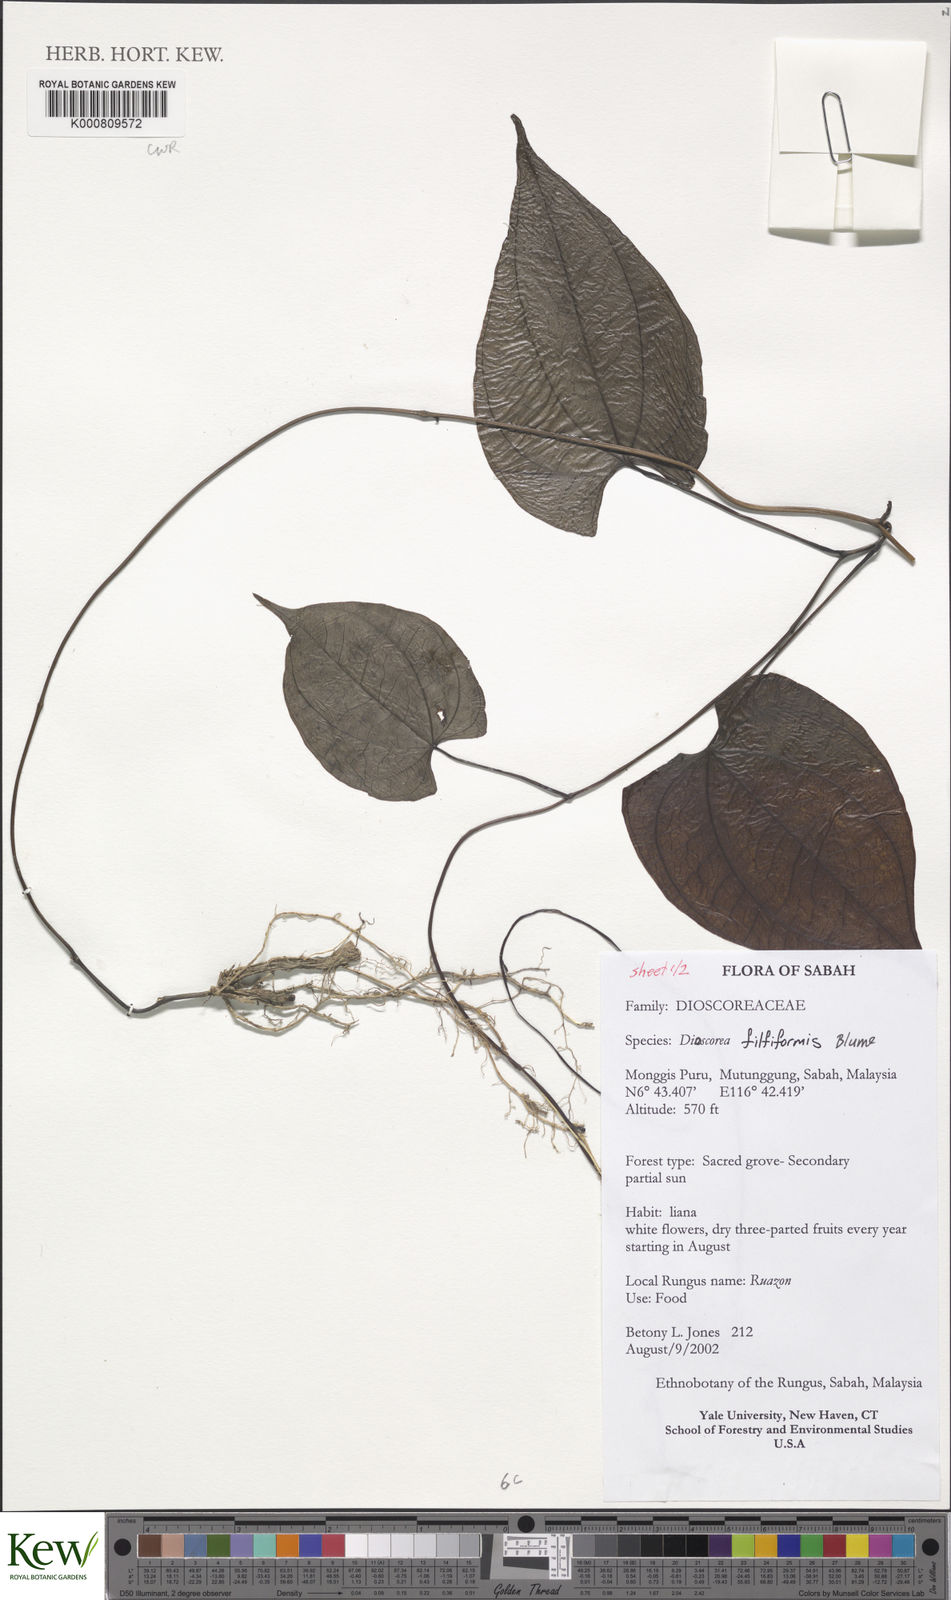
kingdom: Plantae
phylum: Tracheophyta
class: Liliopsida
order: Dioscoreales
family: Dioscoreaceae
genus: Dioscorea
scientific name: Dioscorea filiformis
